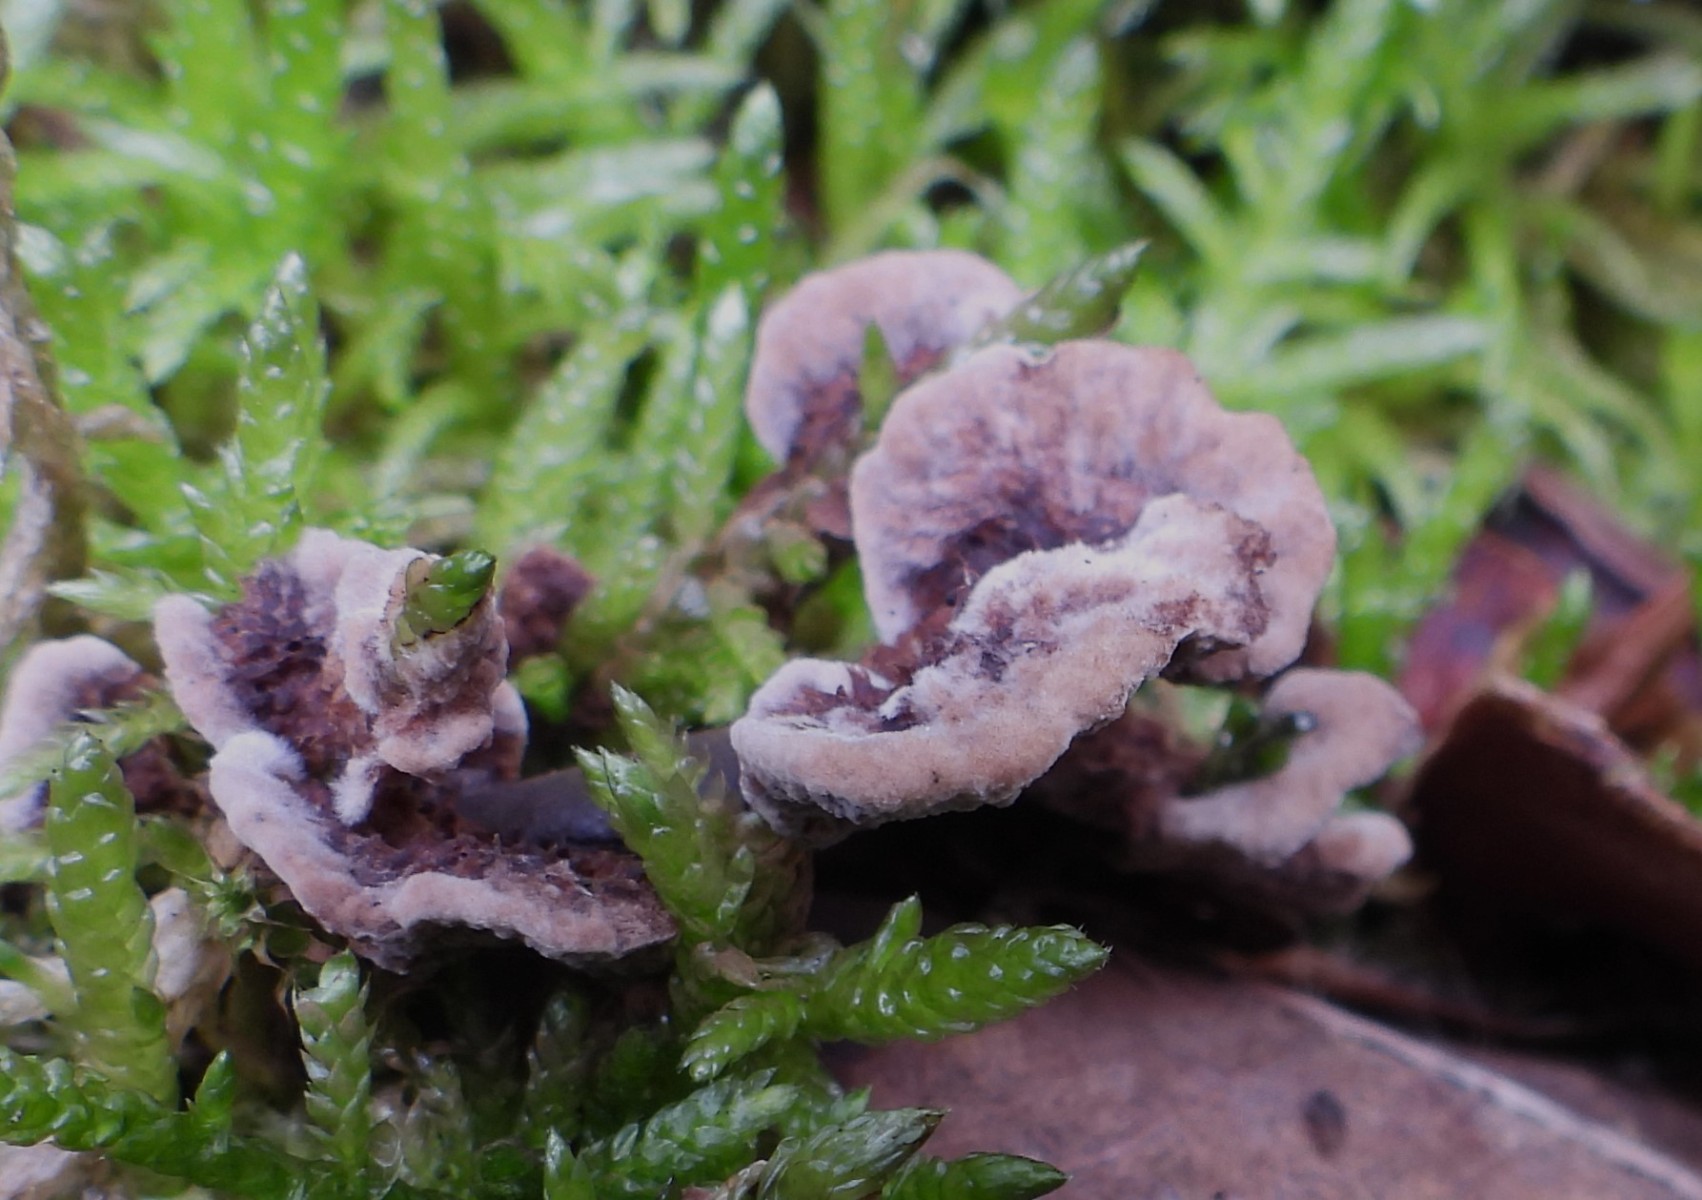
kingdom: Fungi
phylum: Basidiomycota
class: Agaricomycetes
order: Thelephorales
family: Thelephoraceae
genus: Thelephora
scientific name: Thelephora terrestris
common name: fliget frynsesvamp
